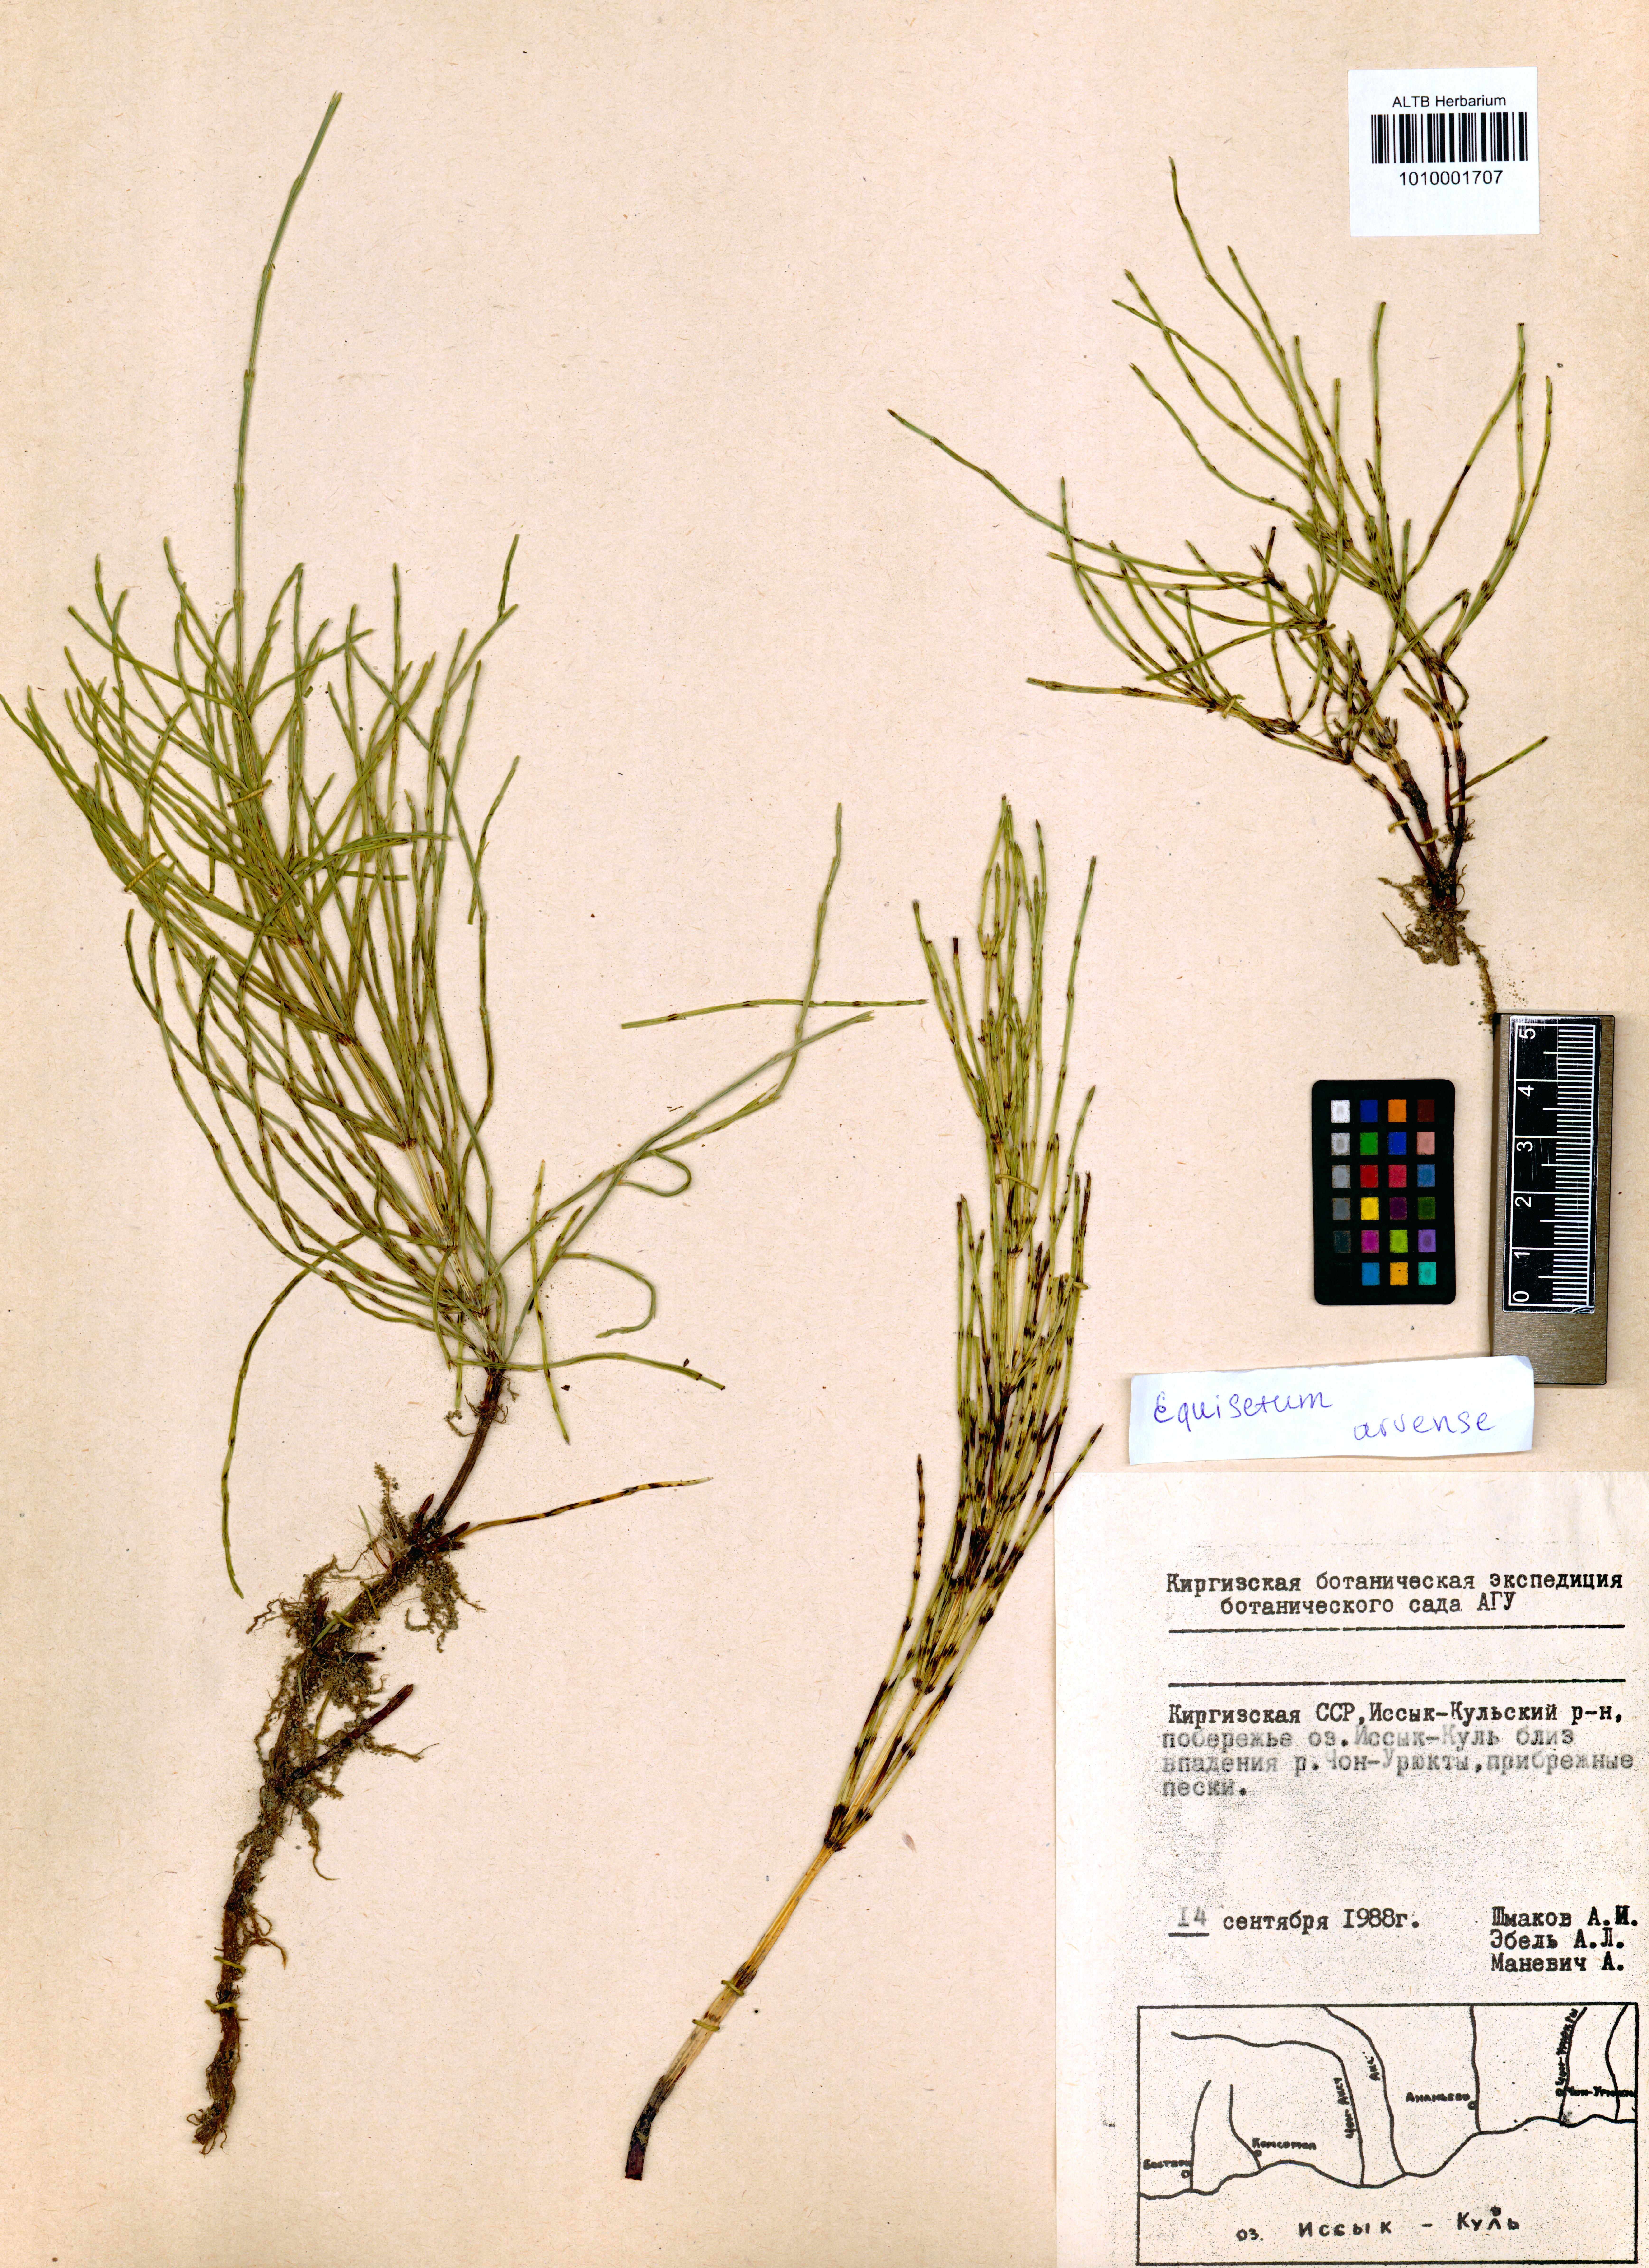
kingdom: Plantae
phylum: Tracheophyta
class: Polypodiopsida
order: Equisetales
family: Equisetaceae
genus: Equisetum
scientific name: Equisetum arvense
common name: Field horsetail
